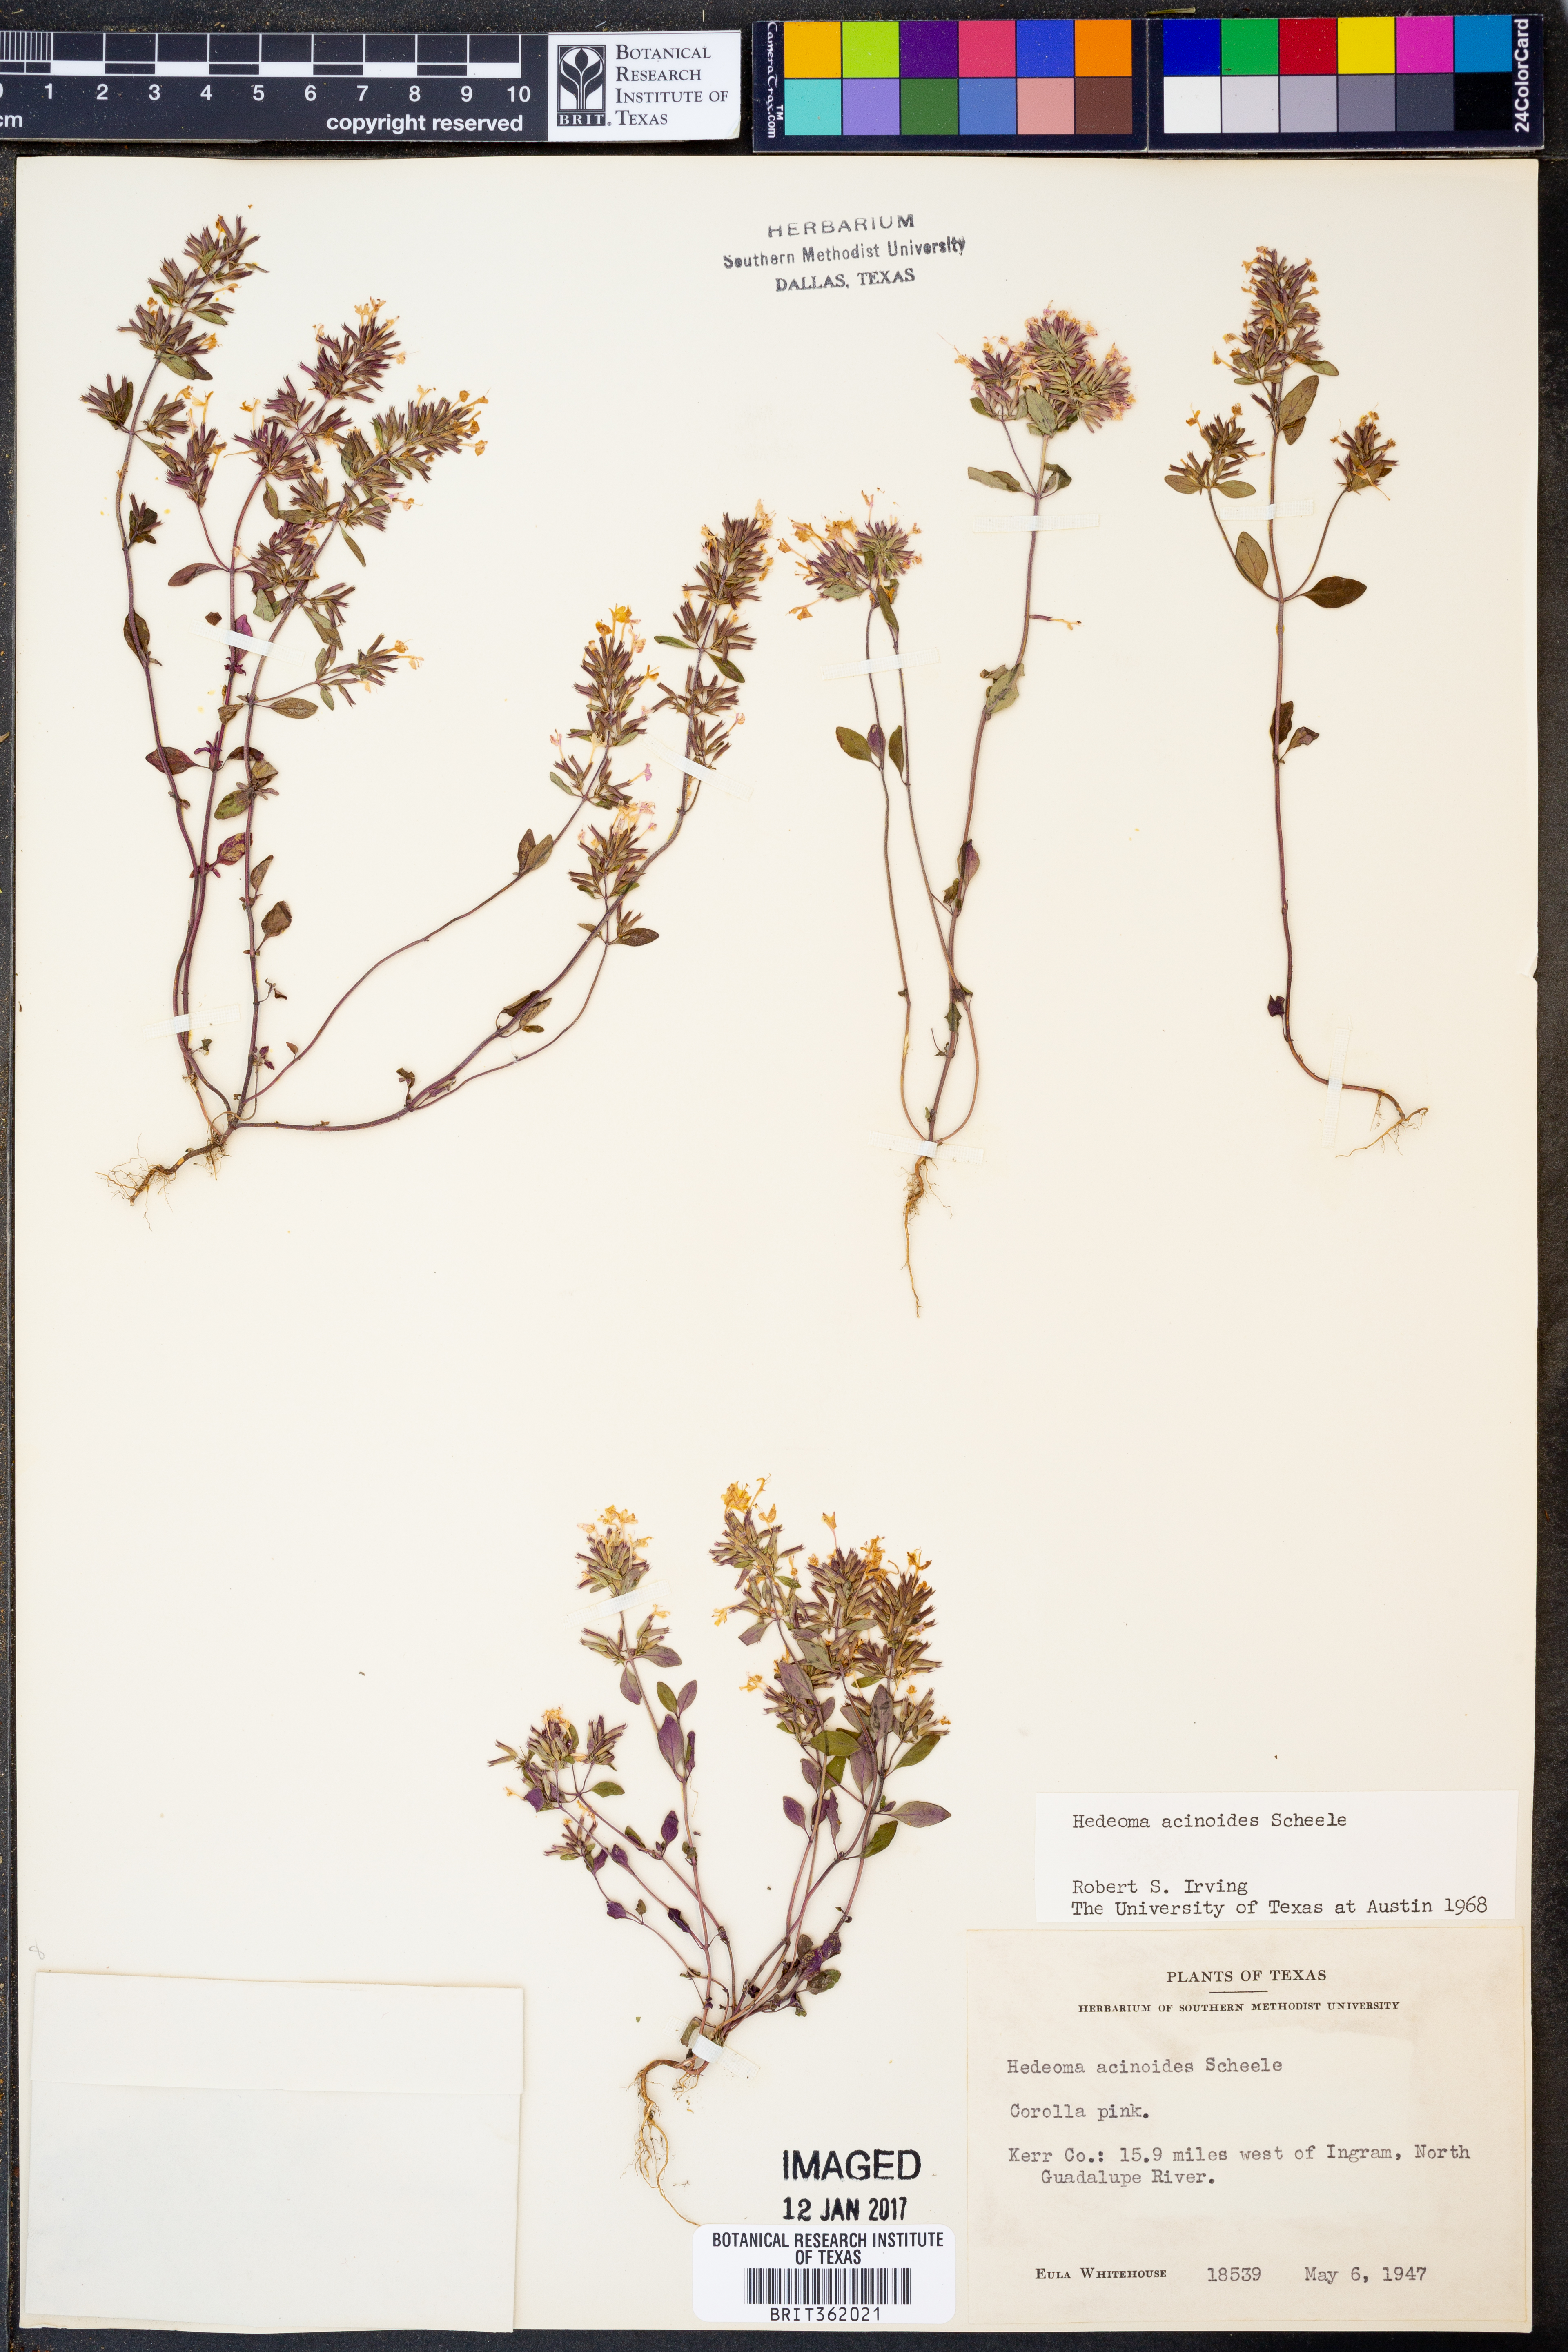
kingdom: Plantae
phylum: Tracheophyta
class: Magnoliopsida
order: Lamiales
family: Lamiaceae
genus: Hedeoma
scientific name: Hedeoma acinoides
